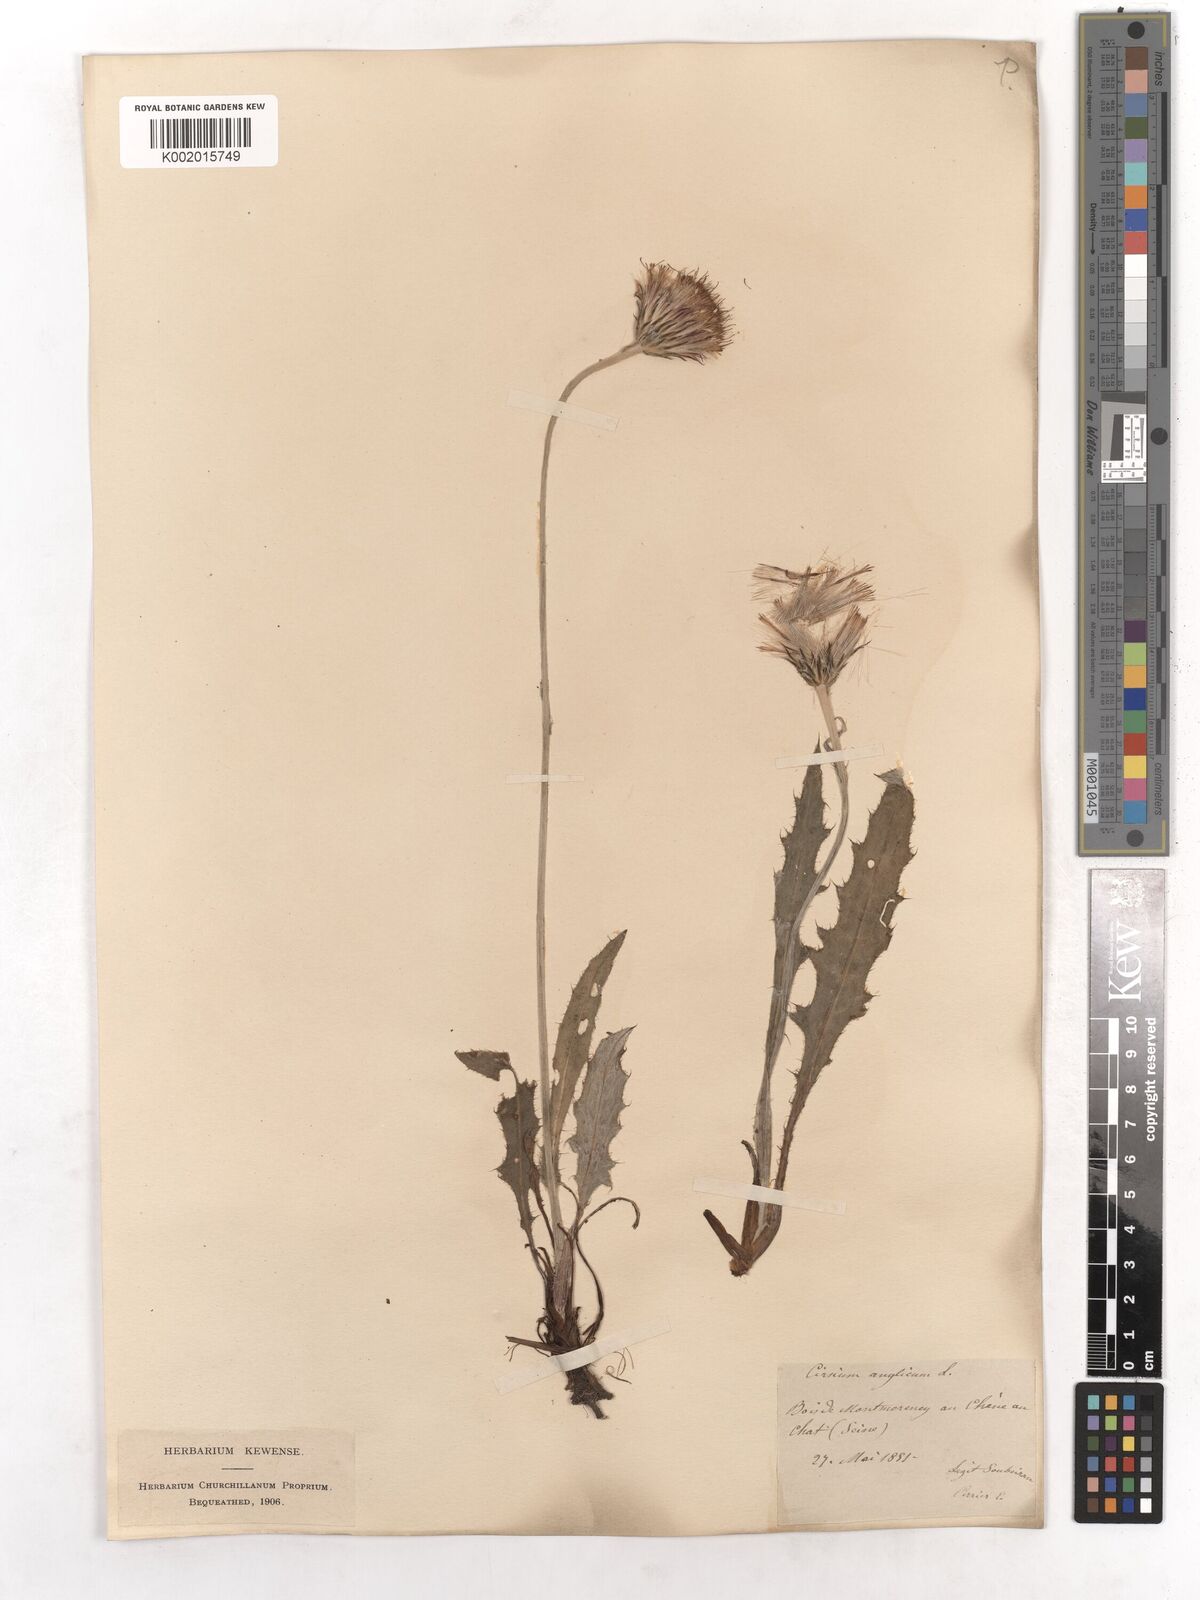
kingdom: Plantae
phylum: Tracheophyta
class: Magnoliopsida
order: Asterales
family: Asteraceae
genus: Cirsium
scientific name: Cirsium dissectum
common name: Meadow thistle
